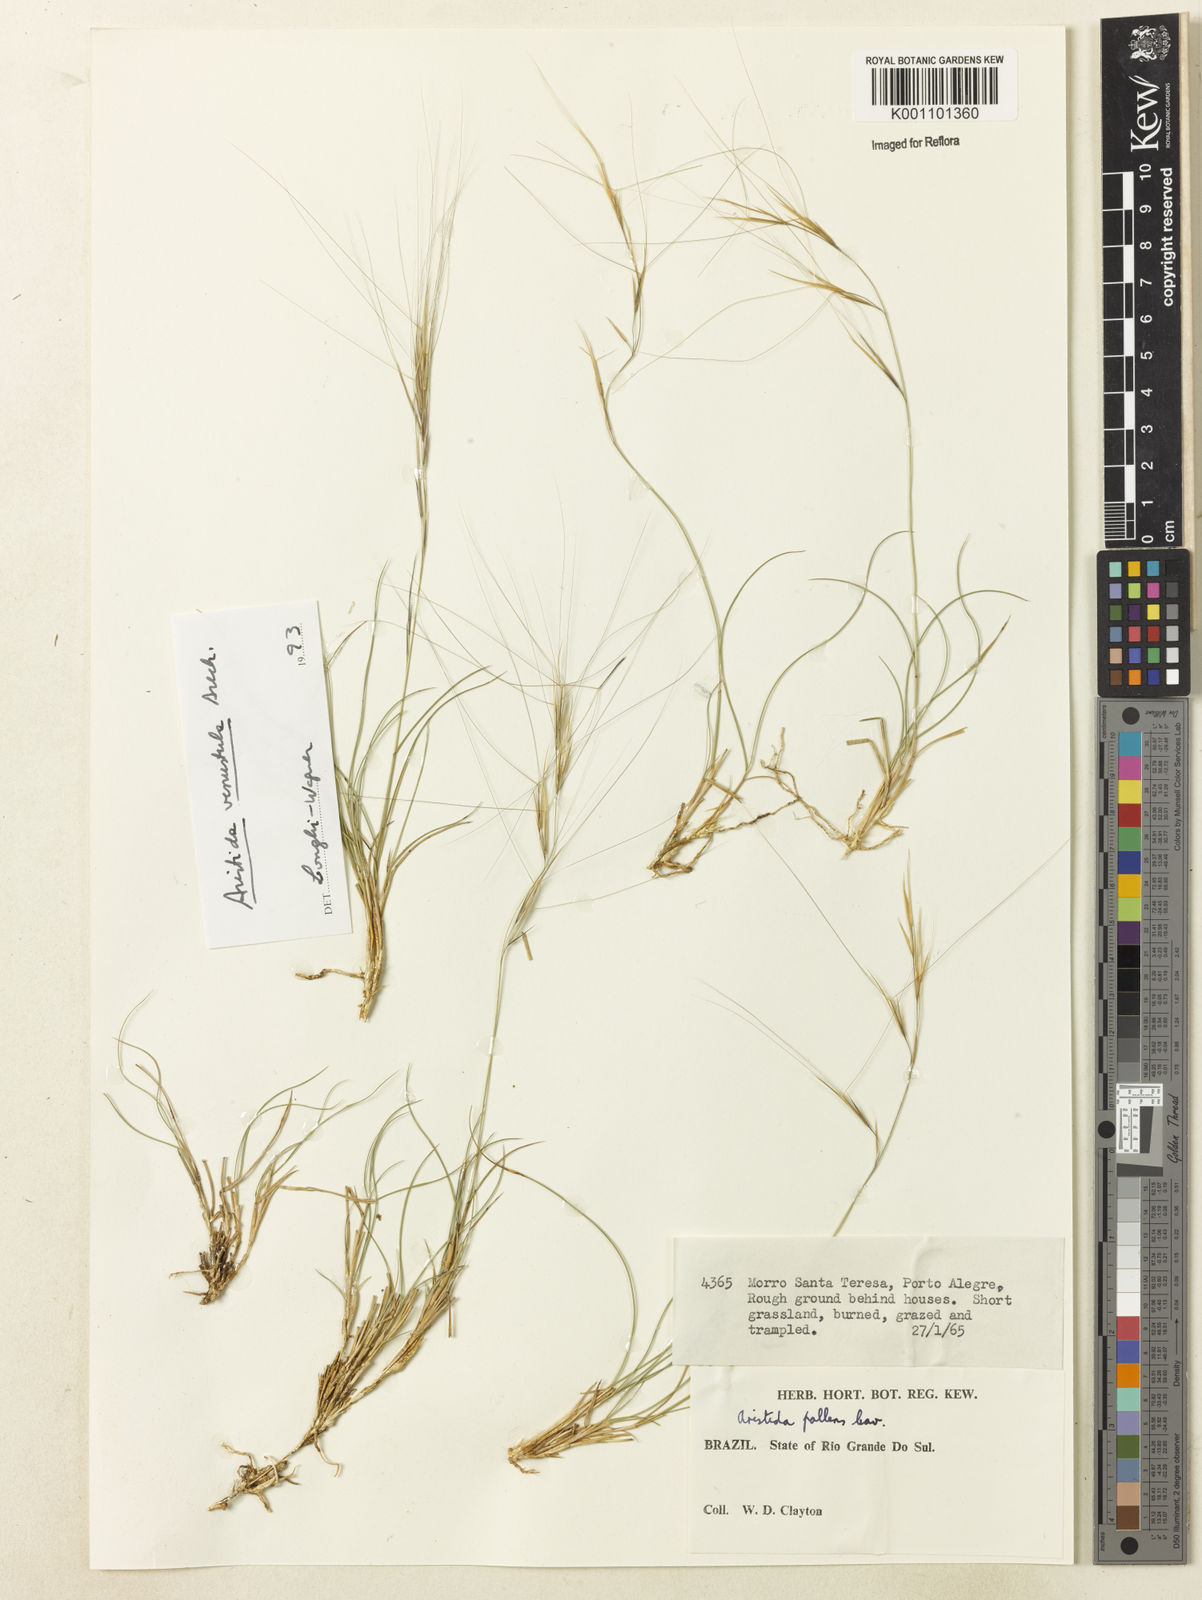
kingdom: Plantae
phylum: Tracheophyta
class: Liliopsida
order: Poales
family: Poaceae
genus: Aristida
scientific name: Aristida venustula
